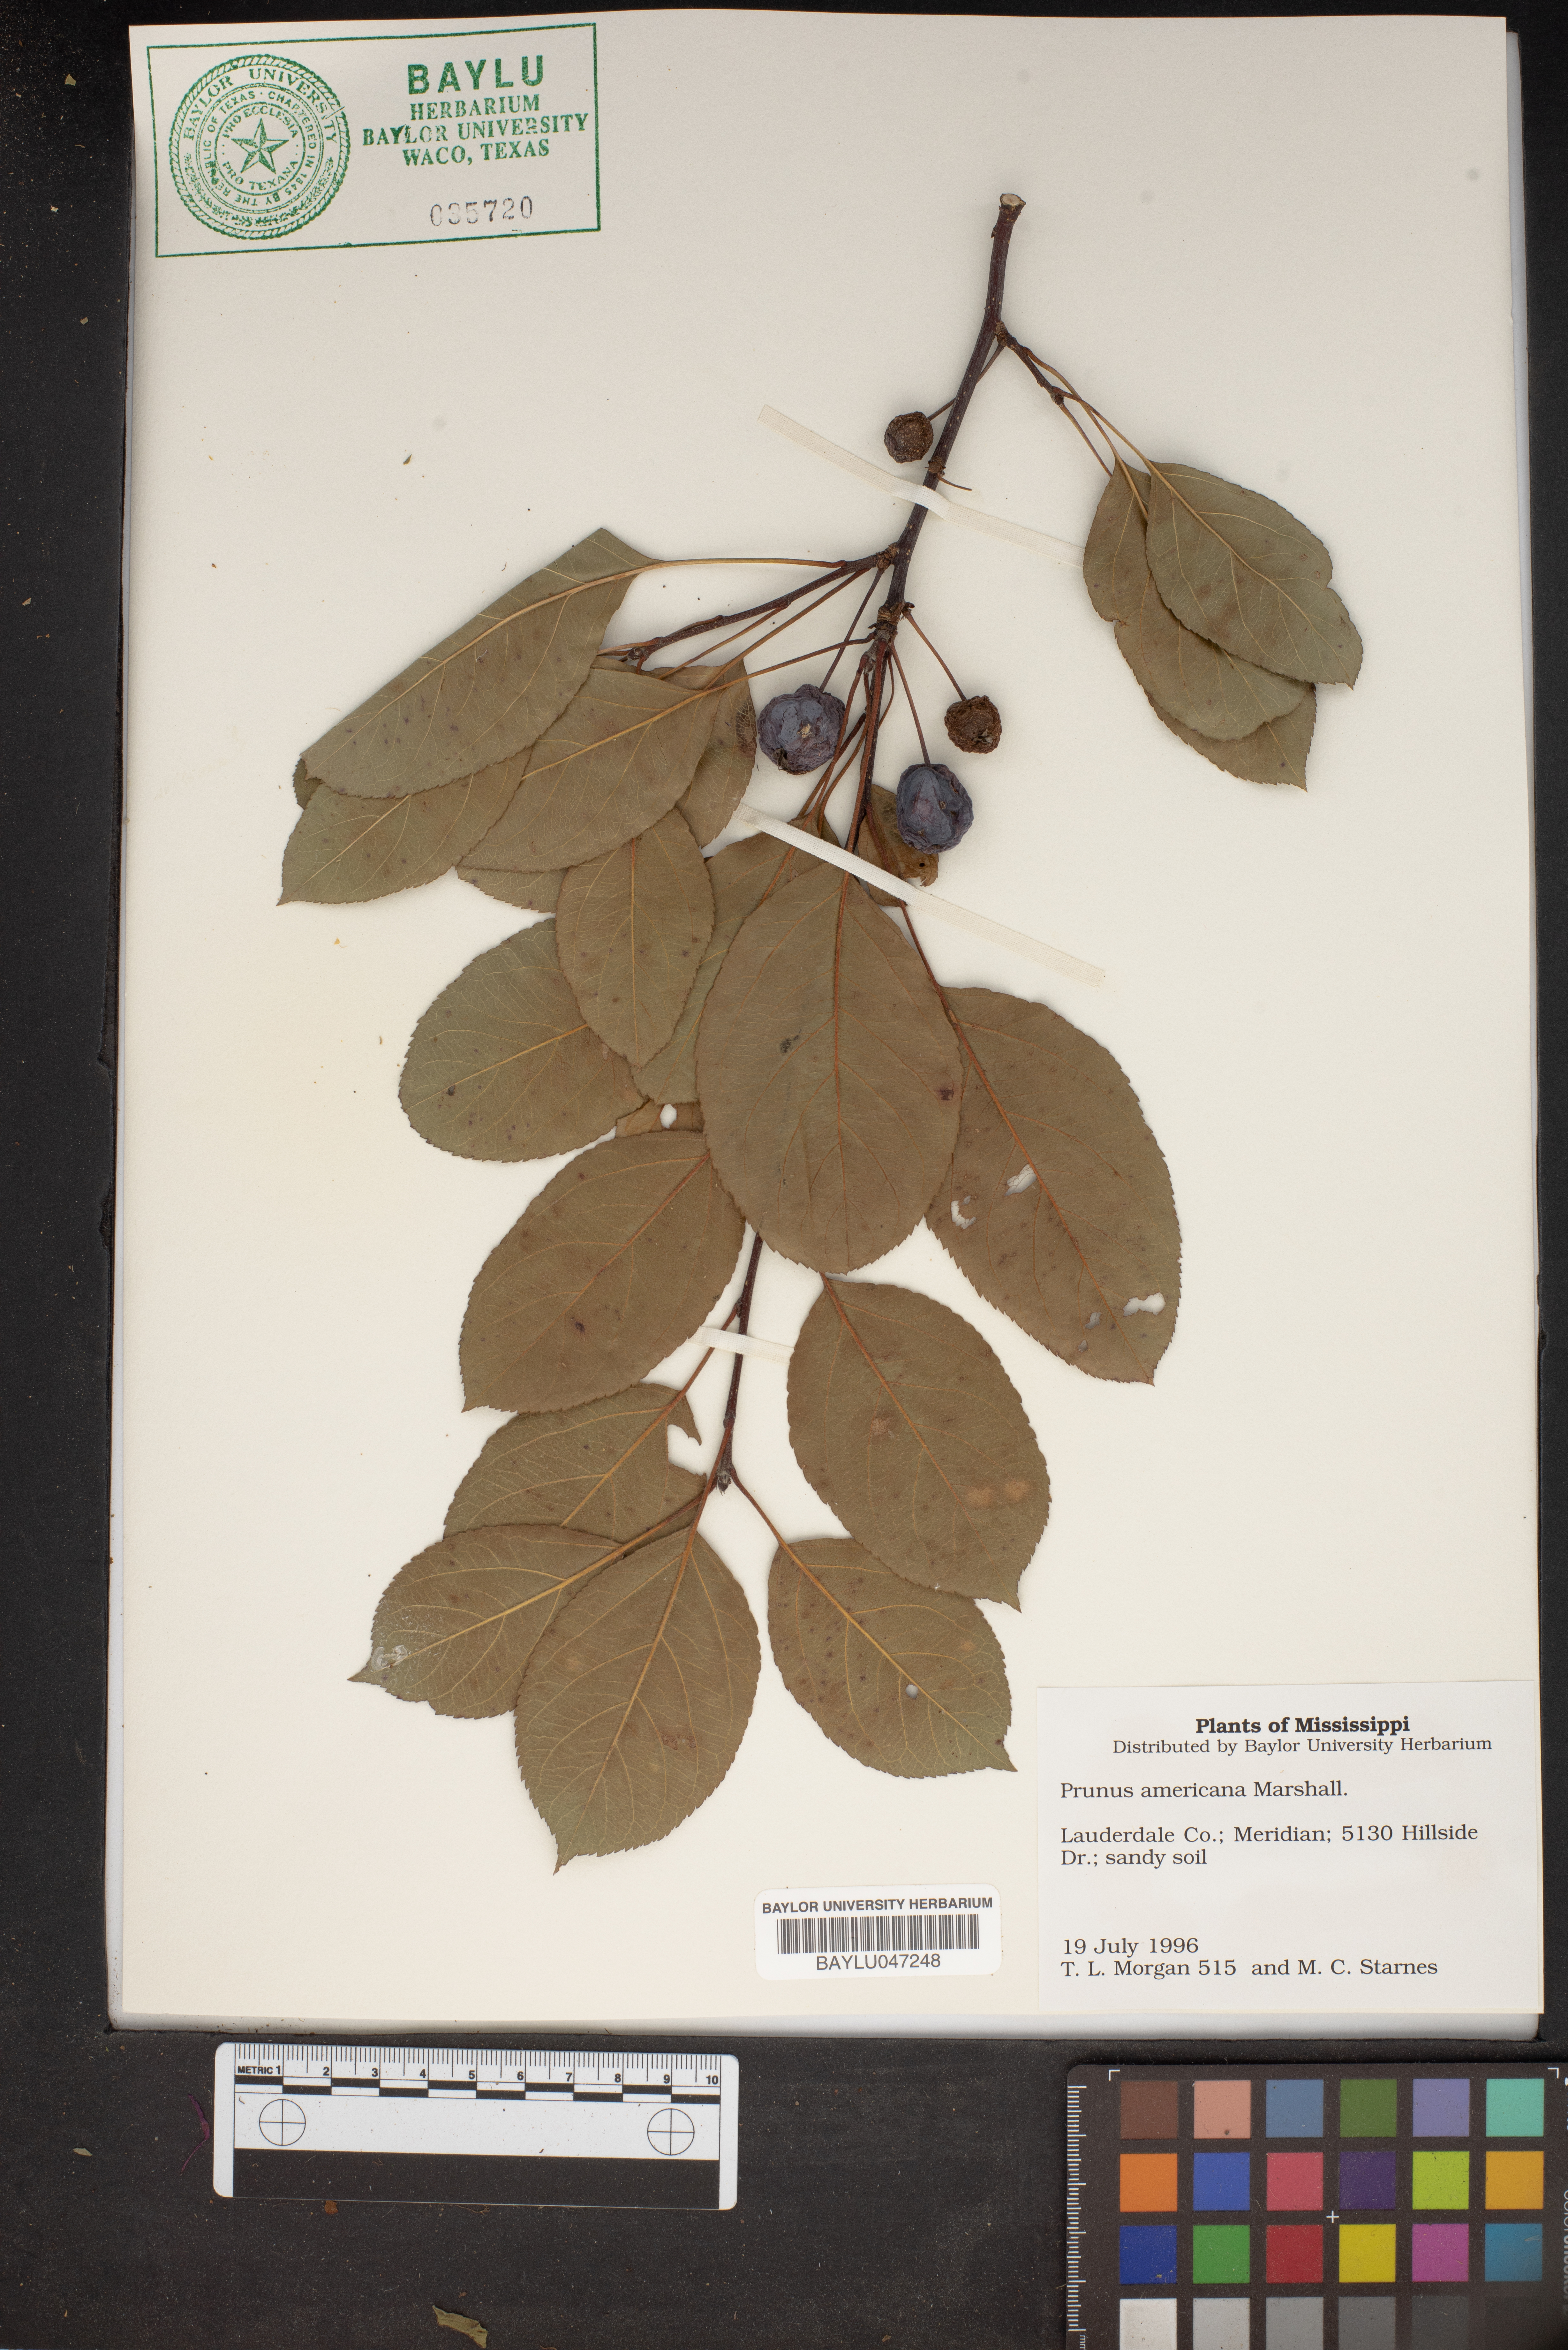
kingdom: Plantae
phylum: Tracheophyta
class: Magnoliopsida
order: Rosales
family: Rosaceae
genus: Prunus
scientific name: Prunus americana
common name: American plum
